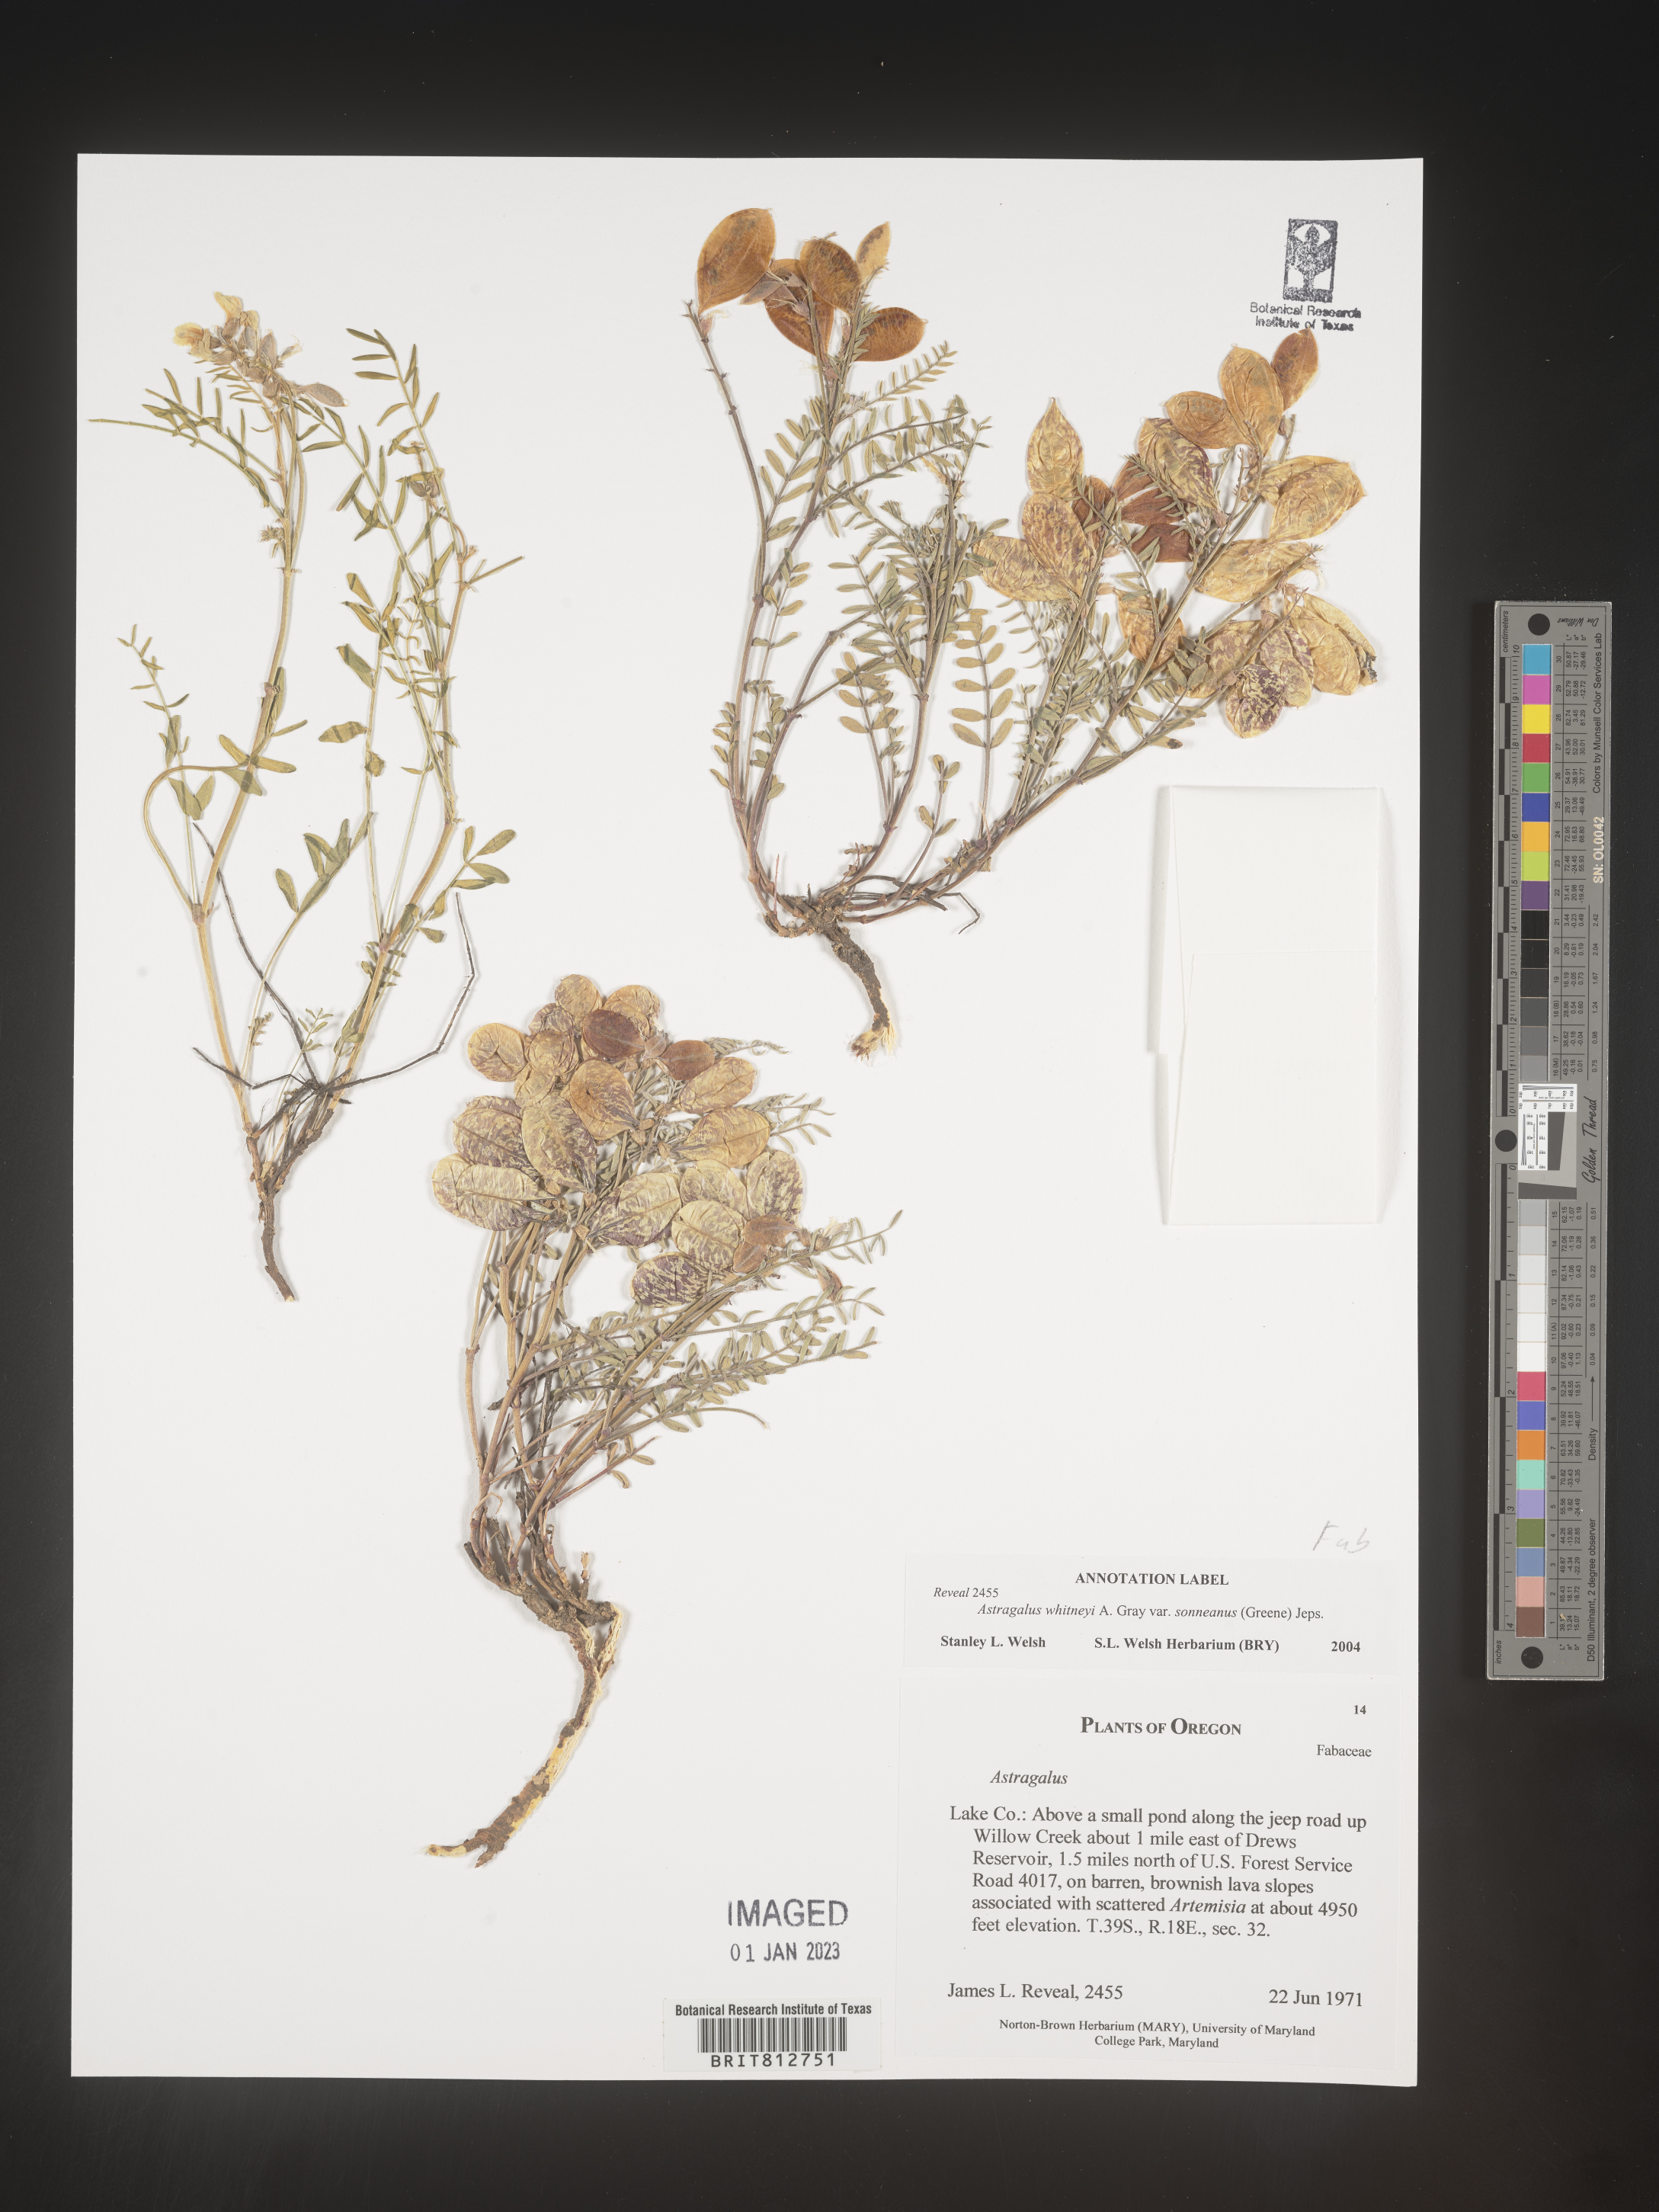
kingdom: Plantae
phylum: Tracheophyta
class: Magnoliopsida
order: Fabales
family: Fabaceae
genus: Astragalus
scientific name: Astragalus
